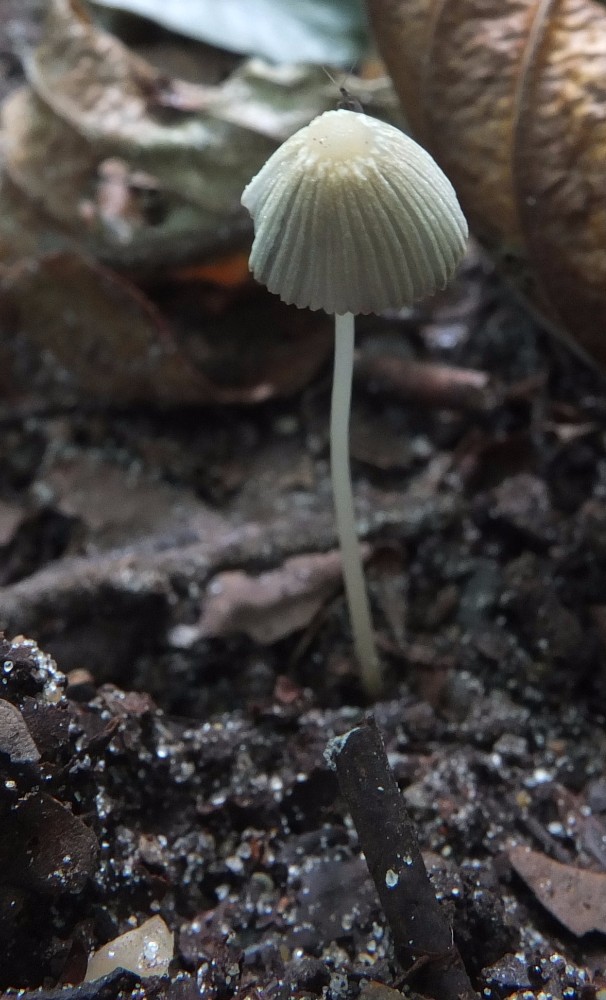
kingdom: Fungi
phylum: Basidiomycota
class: Agaricomycetes
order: Agaricales
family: Psathyrellaceae
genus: Parasola
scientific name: Parasola lactea
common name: glat hjulhat
